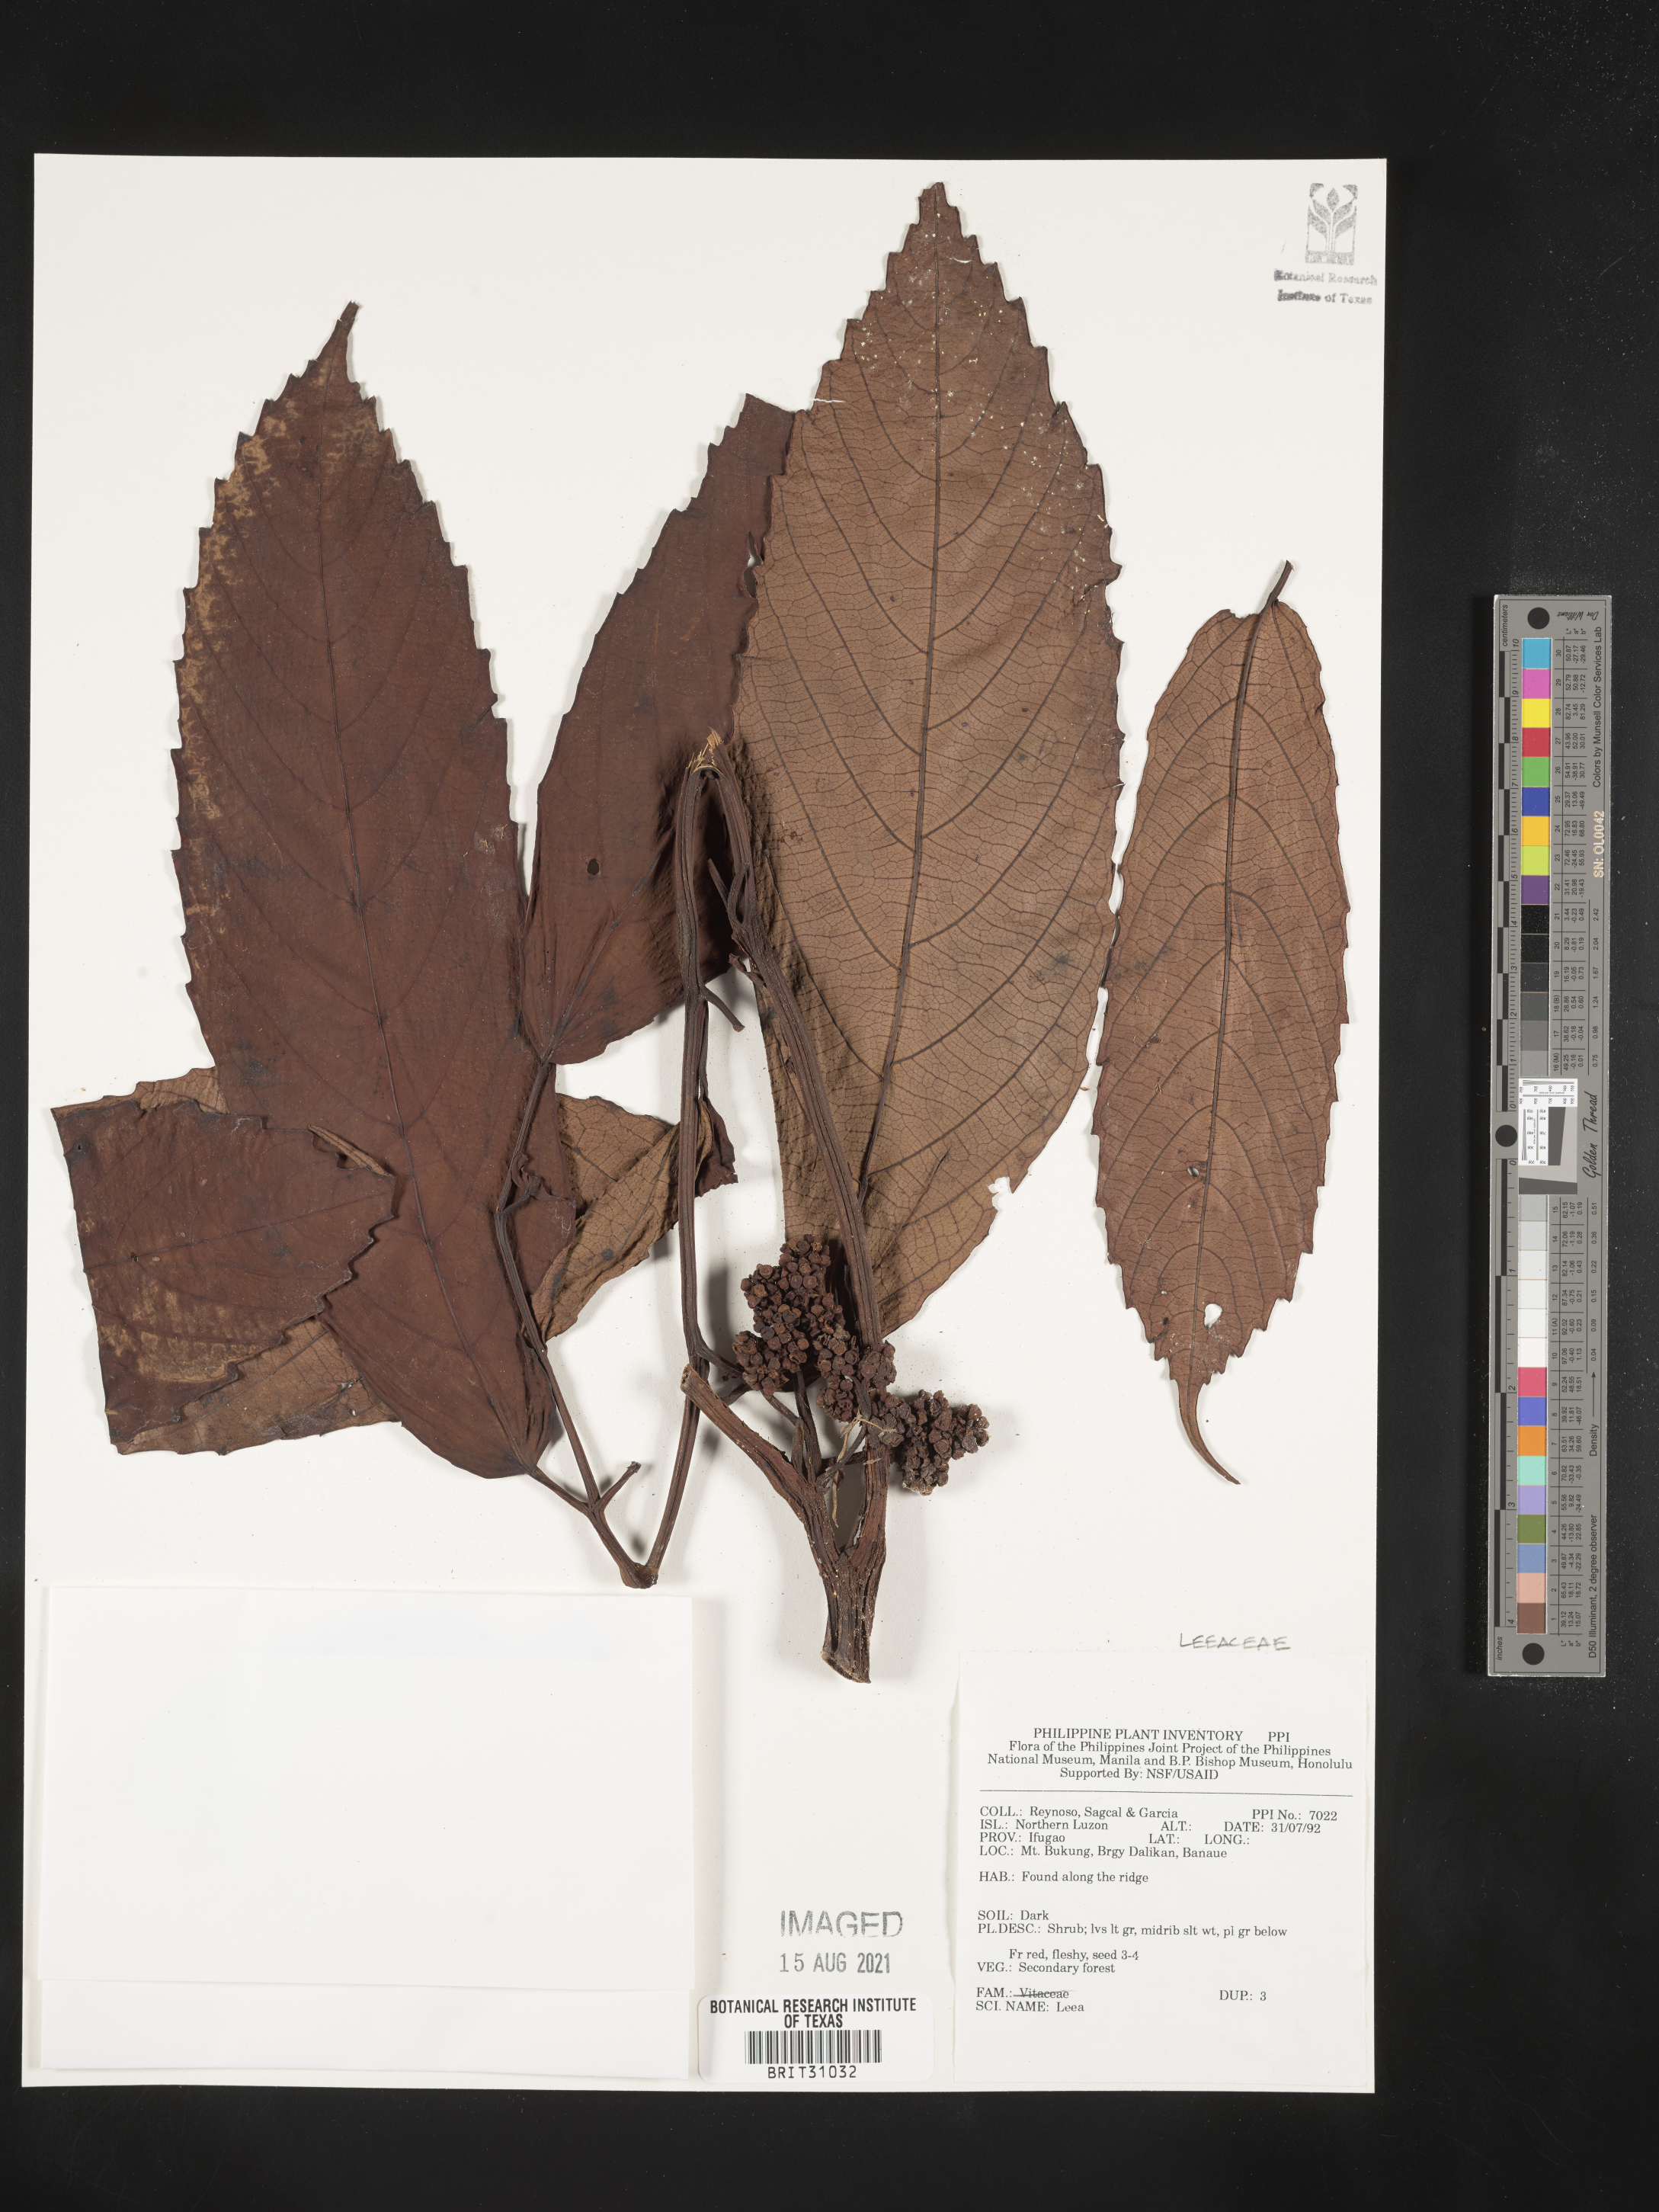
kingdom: Plantae
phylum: Tracheophyta
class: Magnoliopsida
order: Vitales
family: Vitaceae
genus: Leea
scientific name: Leea
